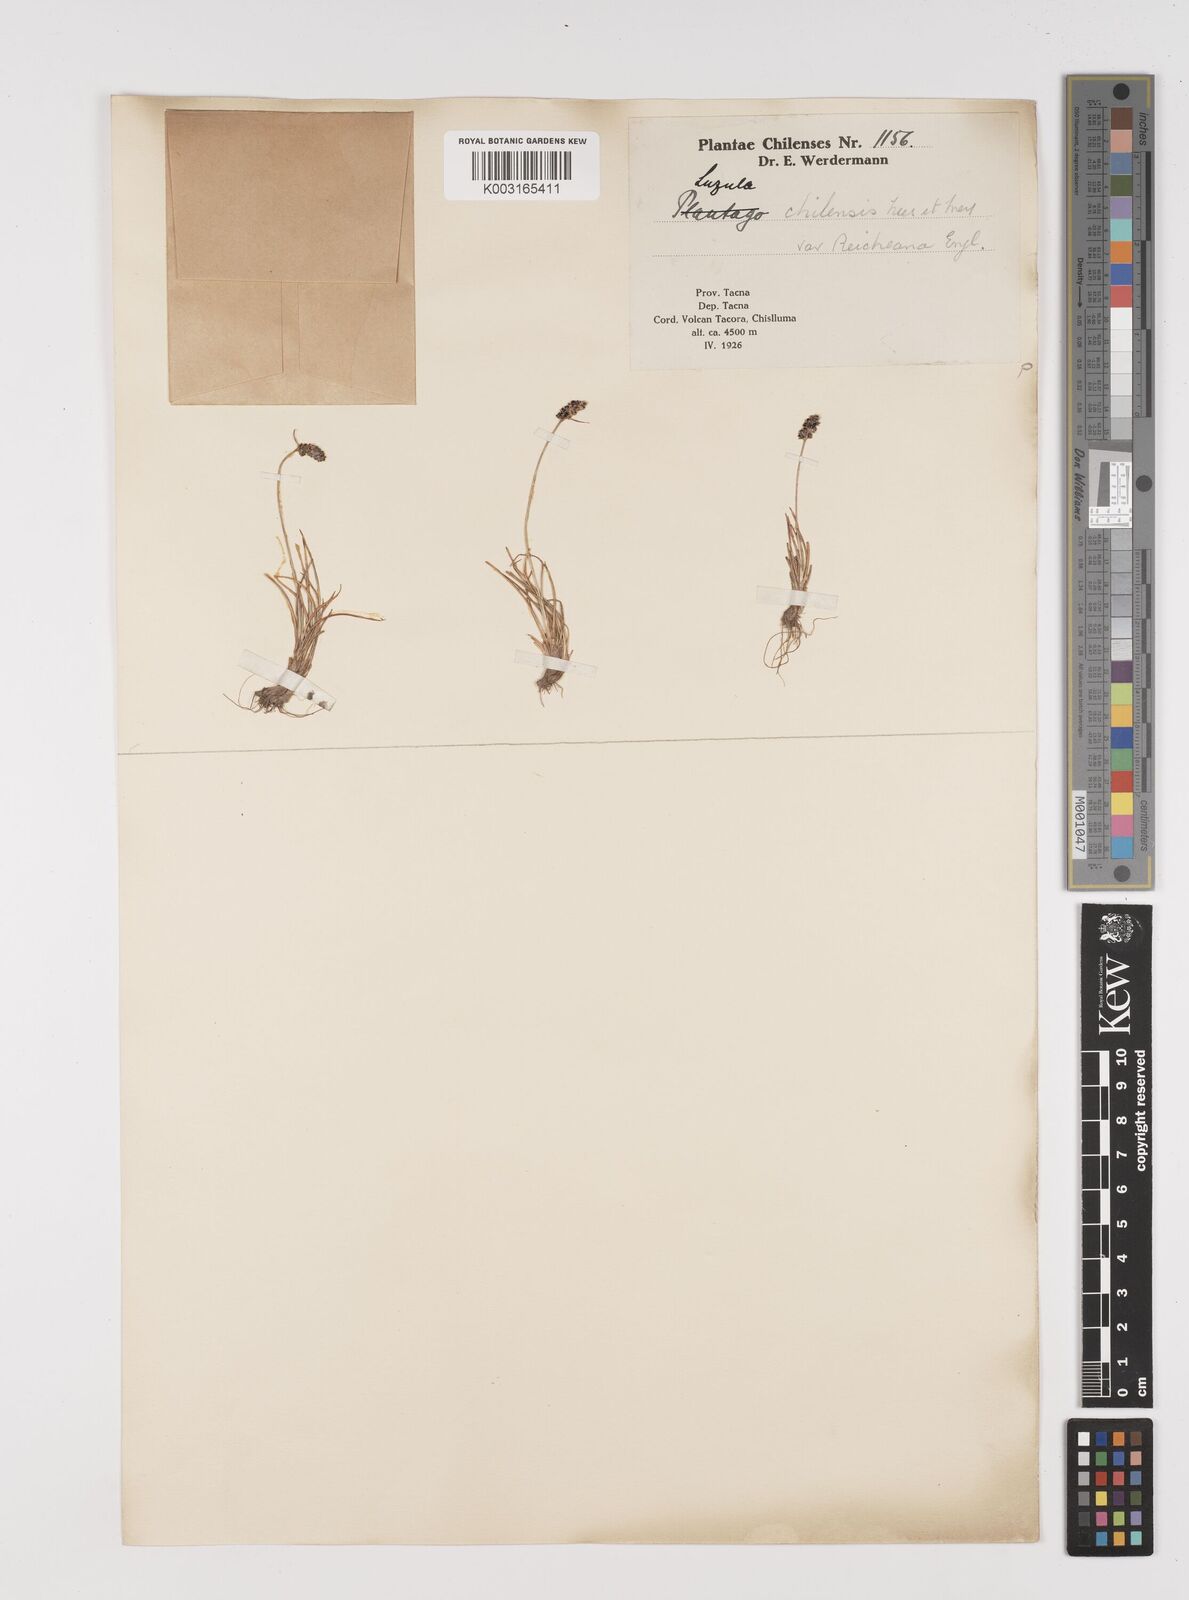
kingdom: Plantae
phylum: Tracheophyta
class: Liliopsida
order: Poales
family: Juncaceae
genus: Luzula
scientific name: Luzula chilensis
